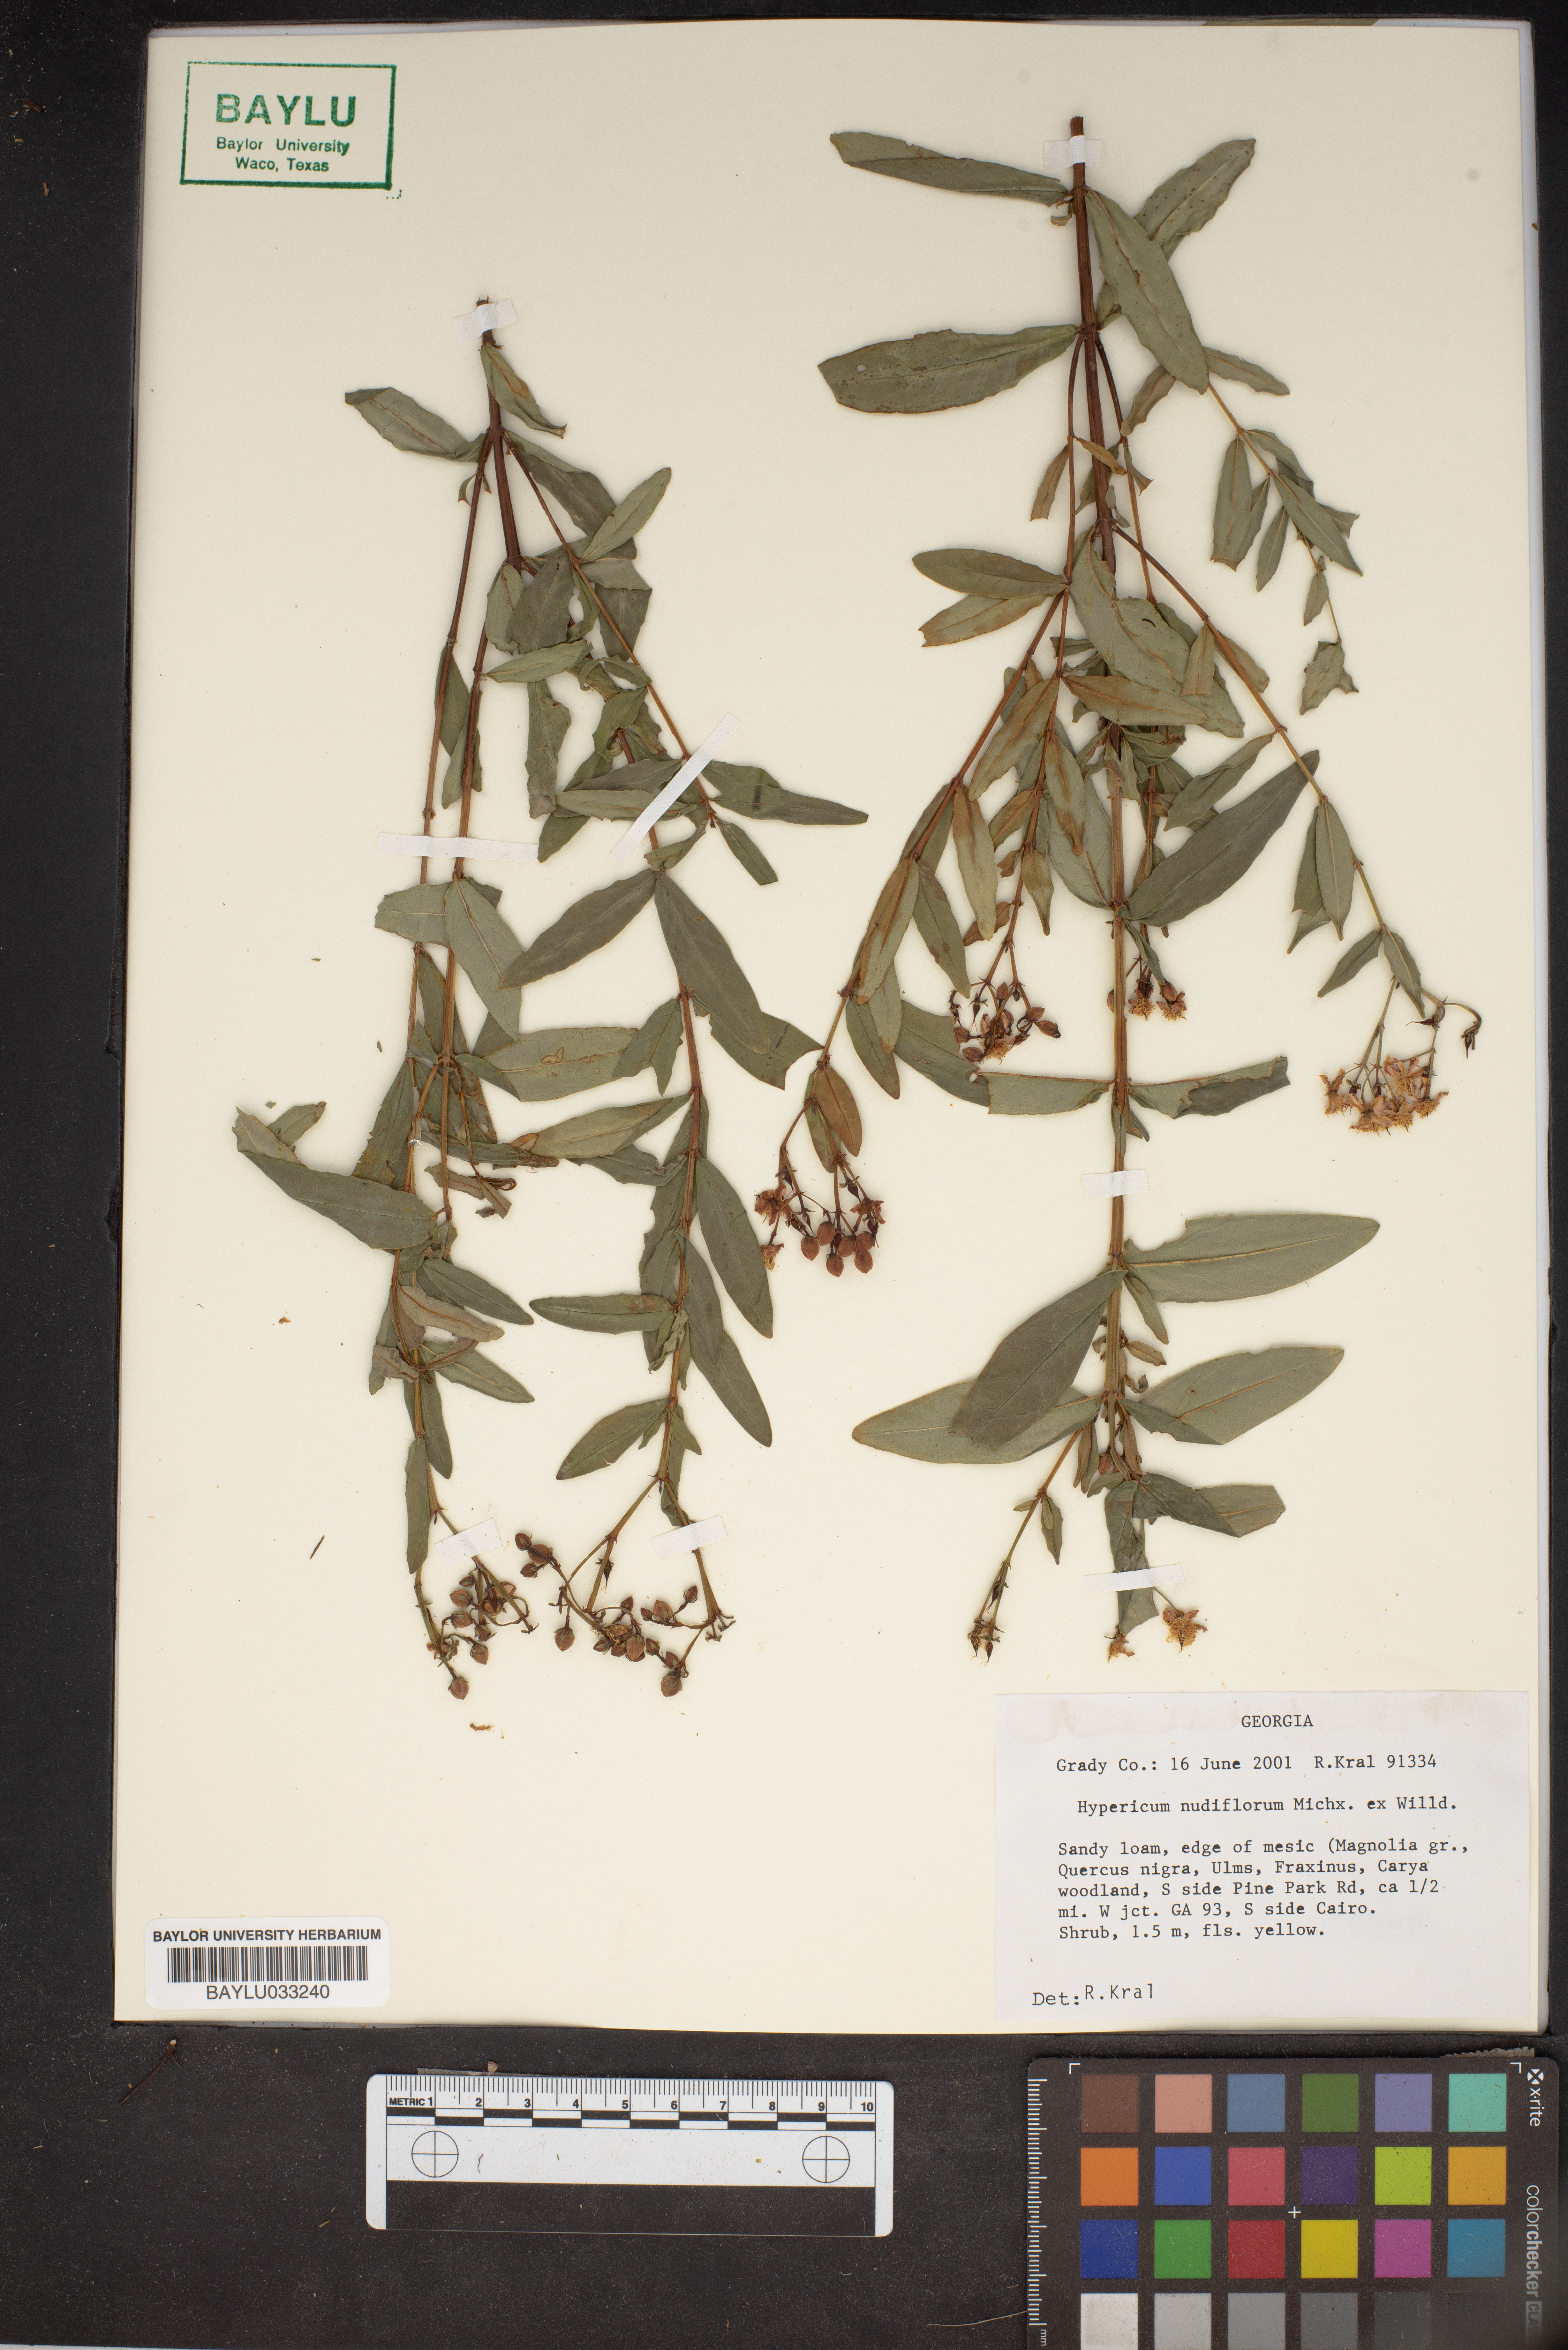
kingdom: Plantae
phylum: Tracheophyta
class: Magnoliopsida
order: Malpighiales
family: Hypericaceae
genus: Hypericum
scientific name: Hypericum nudiflorum
